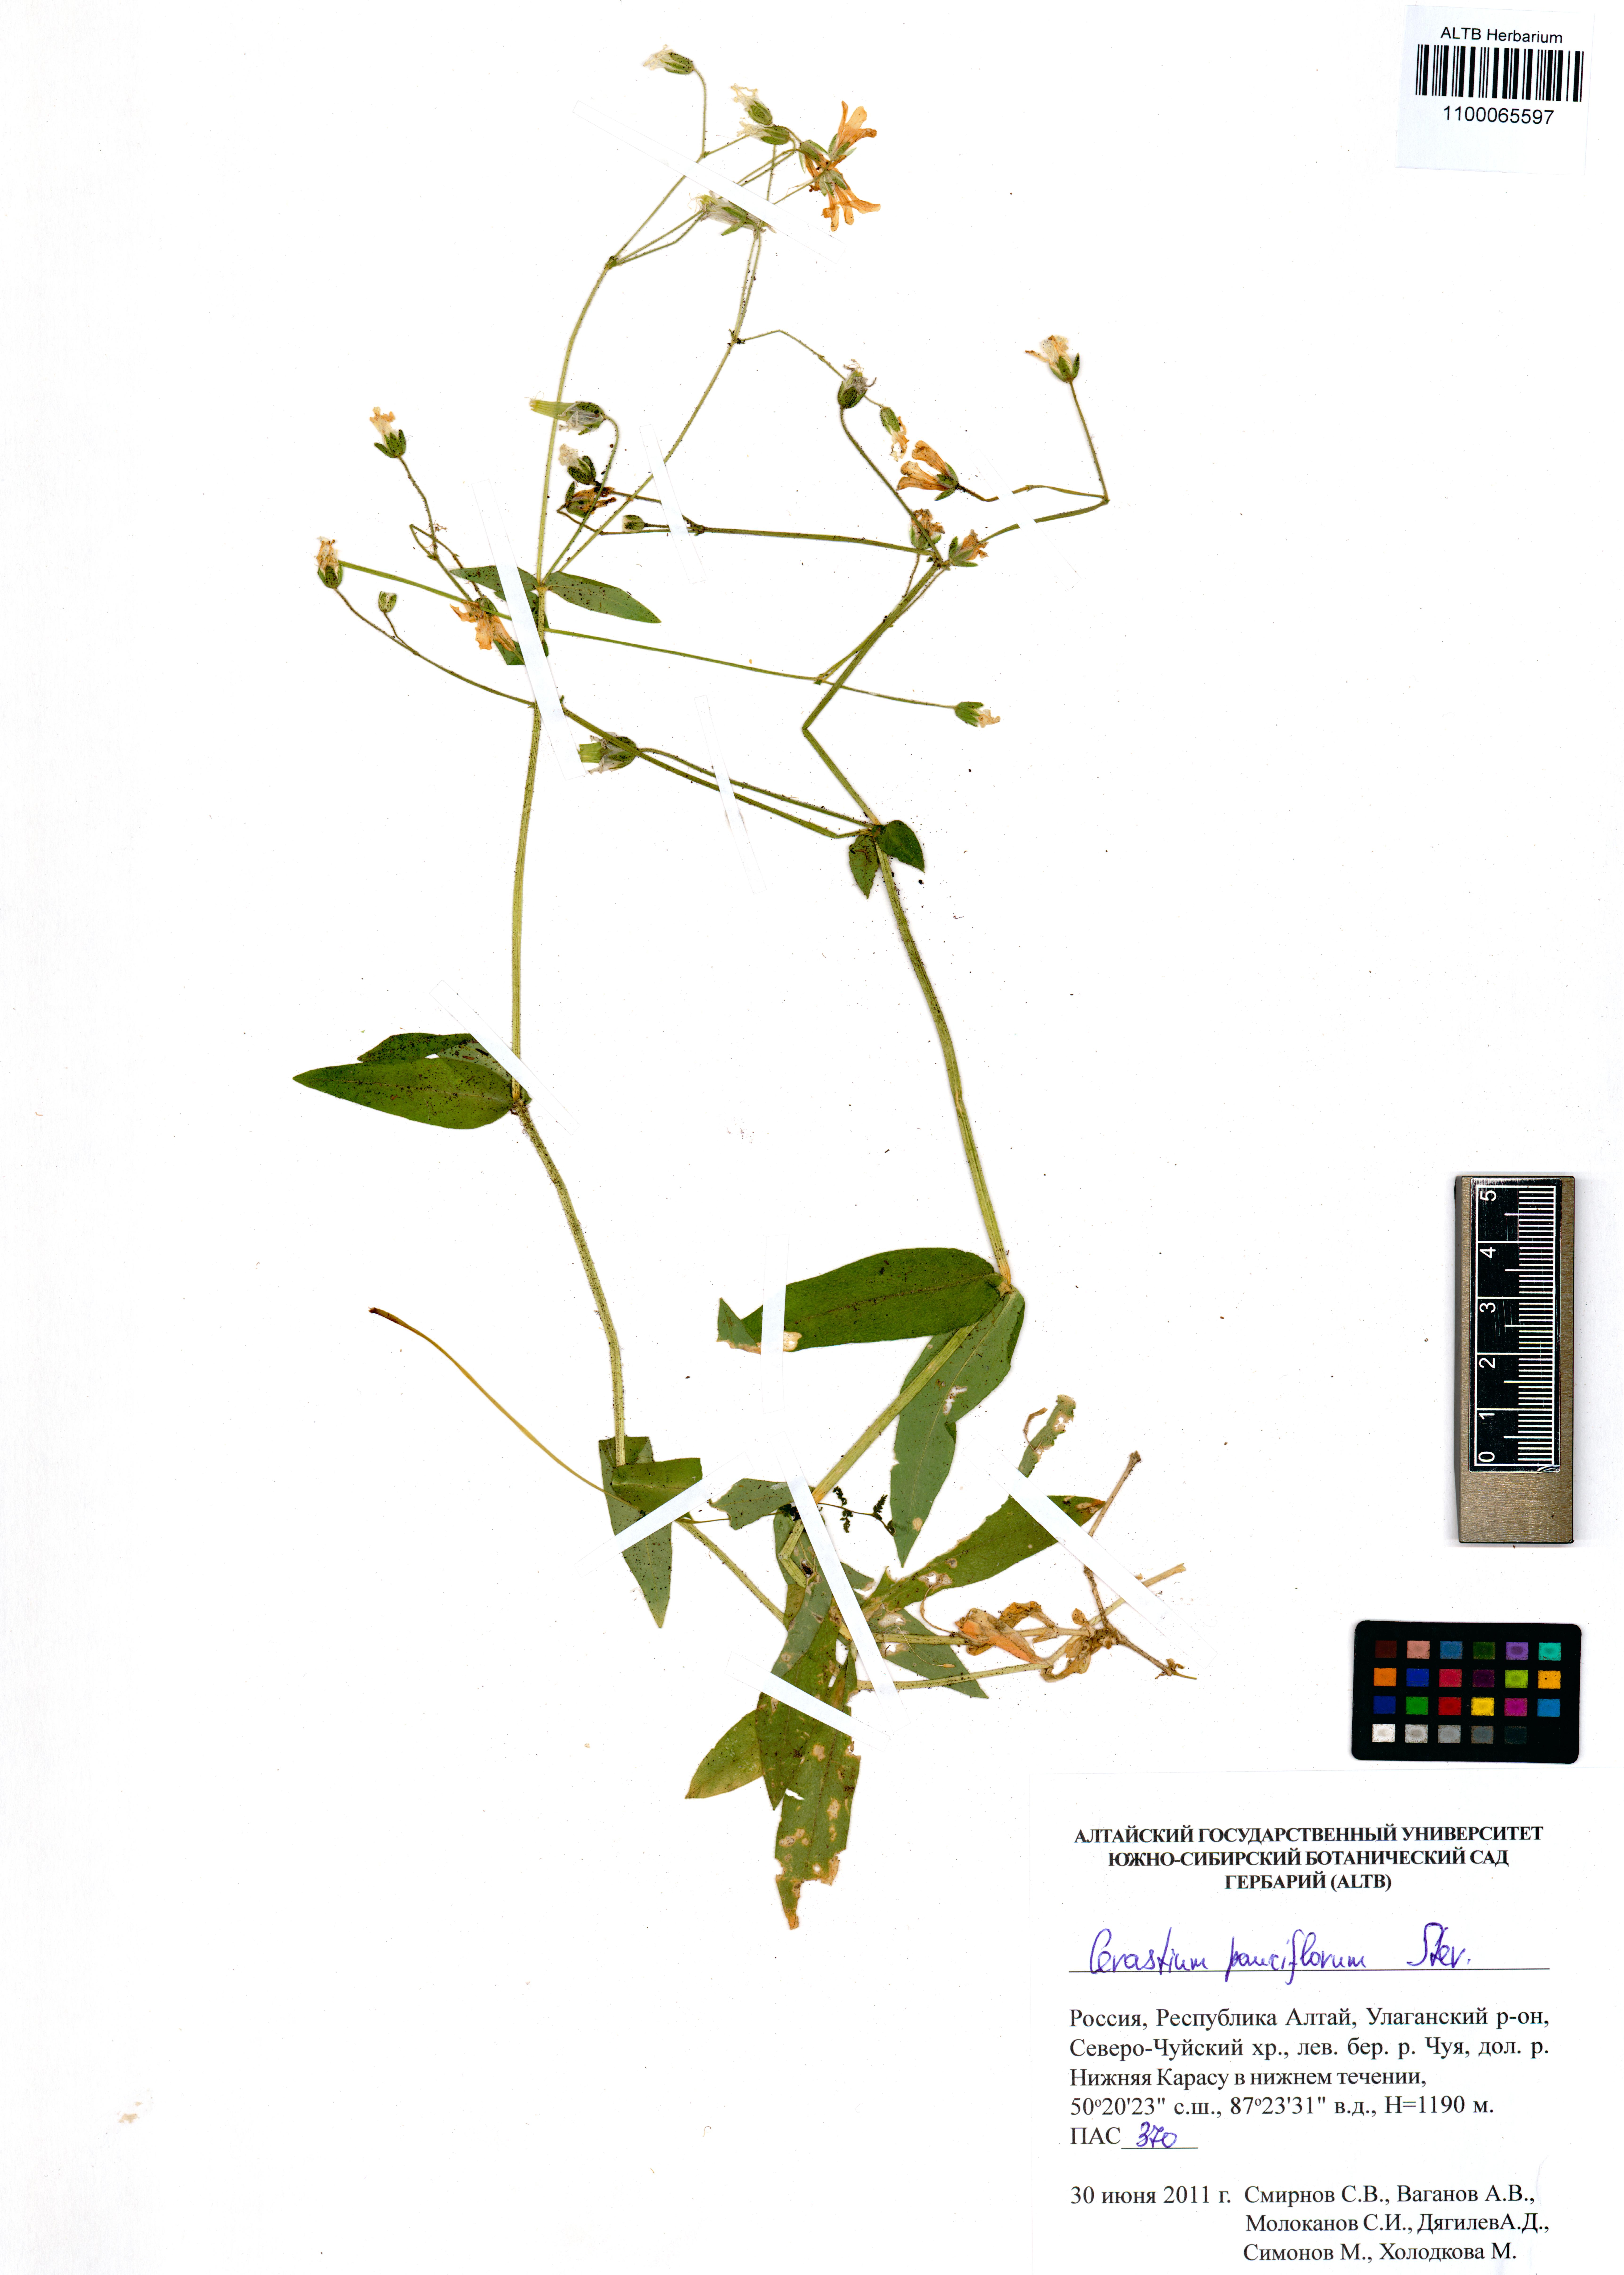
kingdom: Plantae
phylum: Tracheophyta
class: Magnoliopsida
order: Caryophyllales
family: Caryophyllaceae
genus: Cerastium
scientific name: Cerastium pauciflorum
